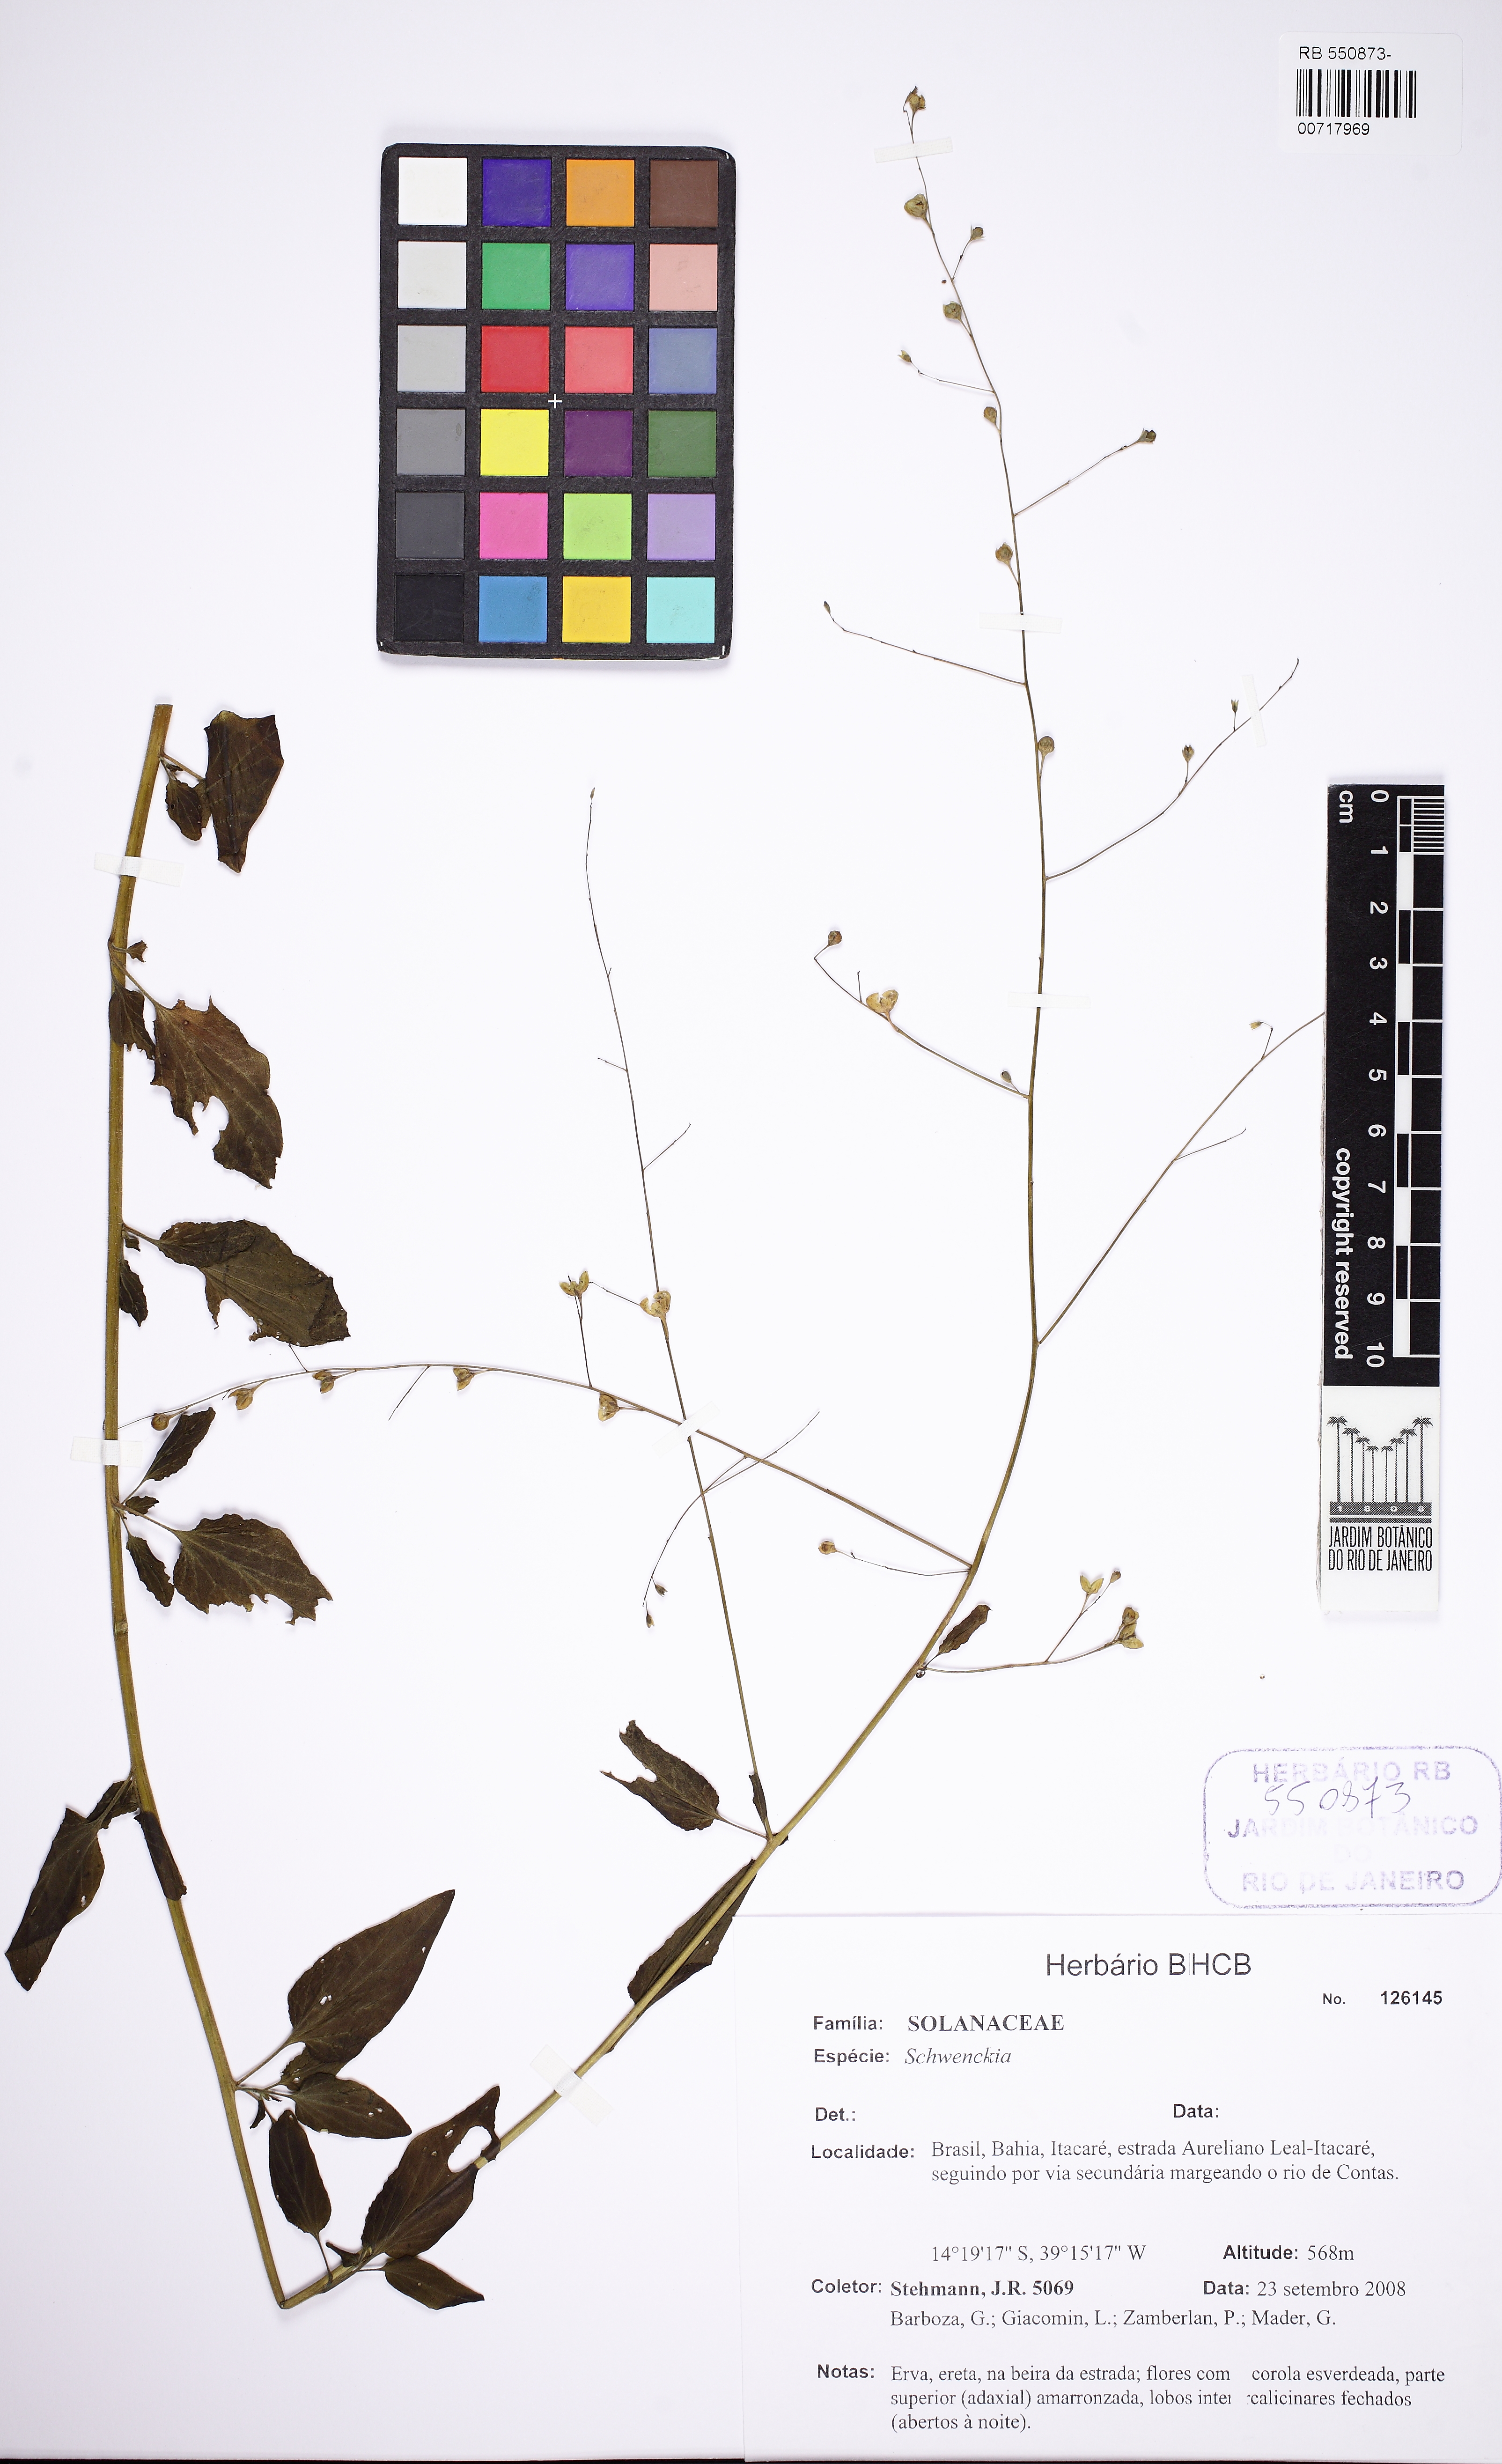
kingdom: Plantae
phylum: Tracheophyta
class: Magnoliopsida
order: Solanales
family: Solanaceae
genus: Schwenckia
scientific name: Schwenckia novaveneciana
